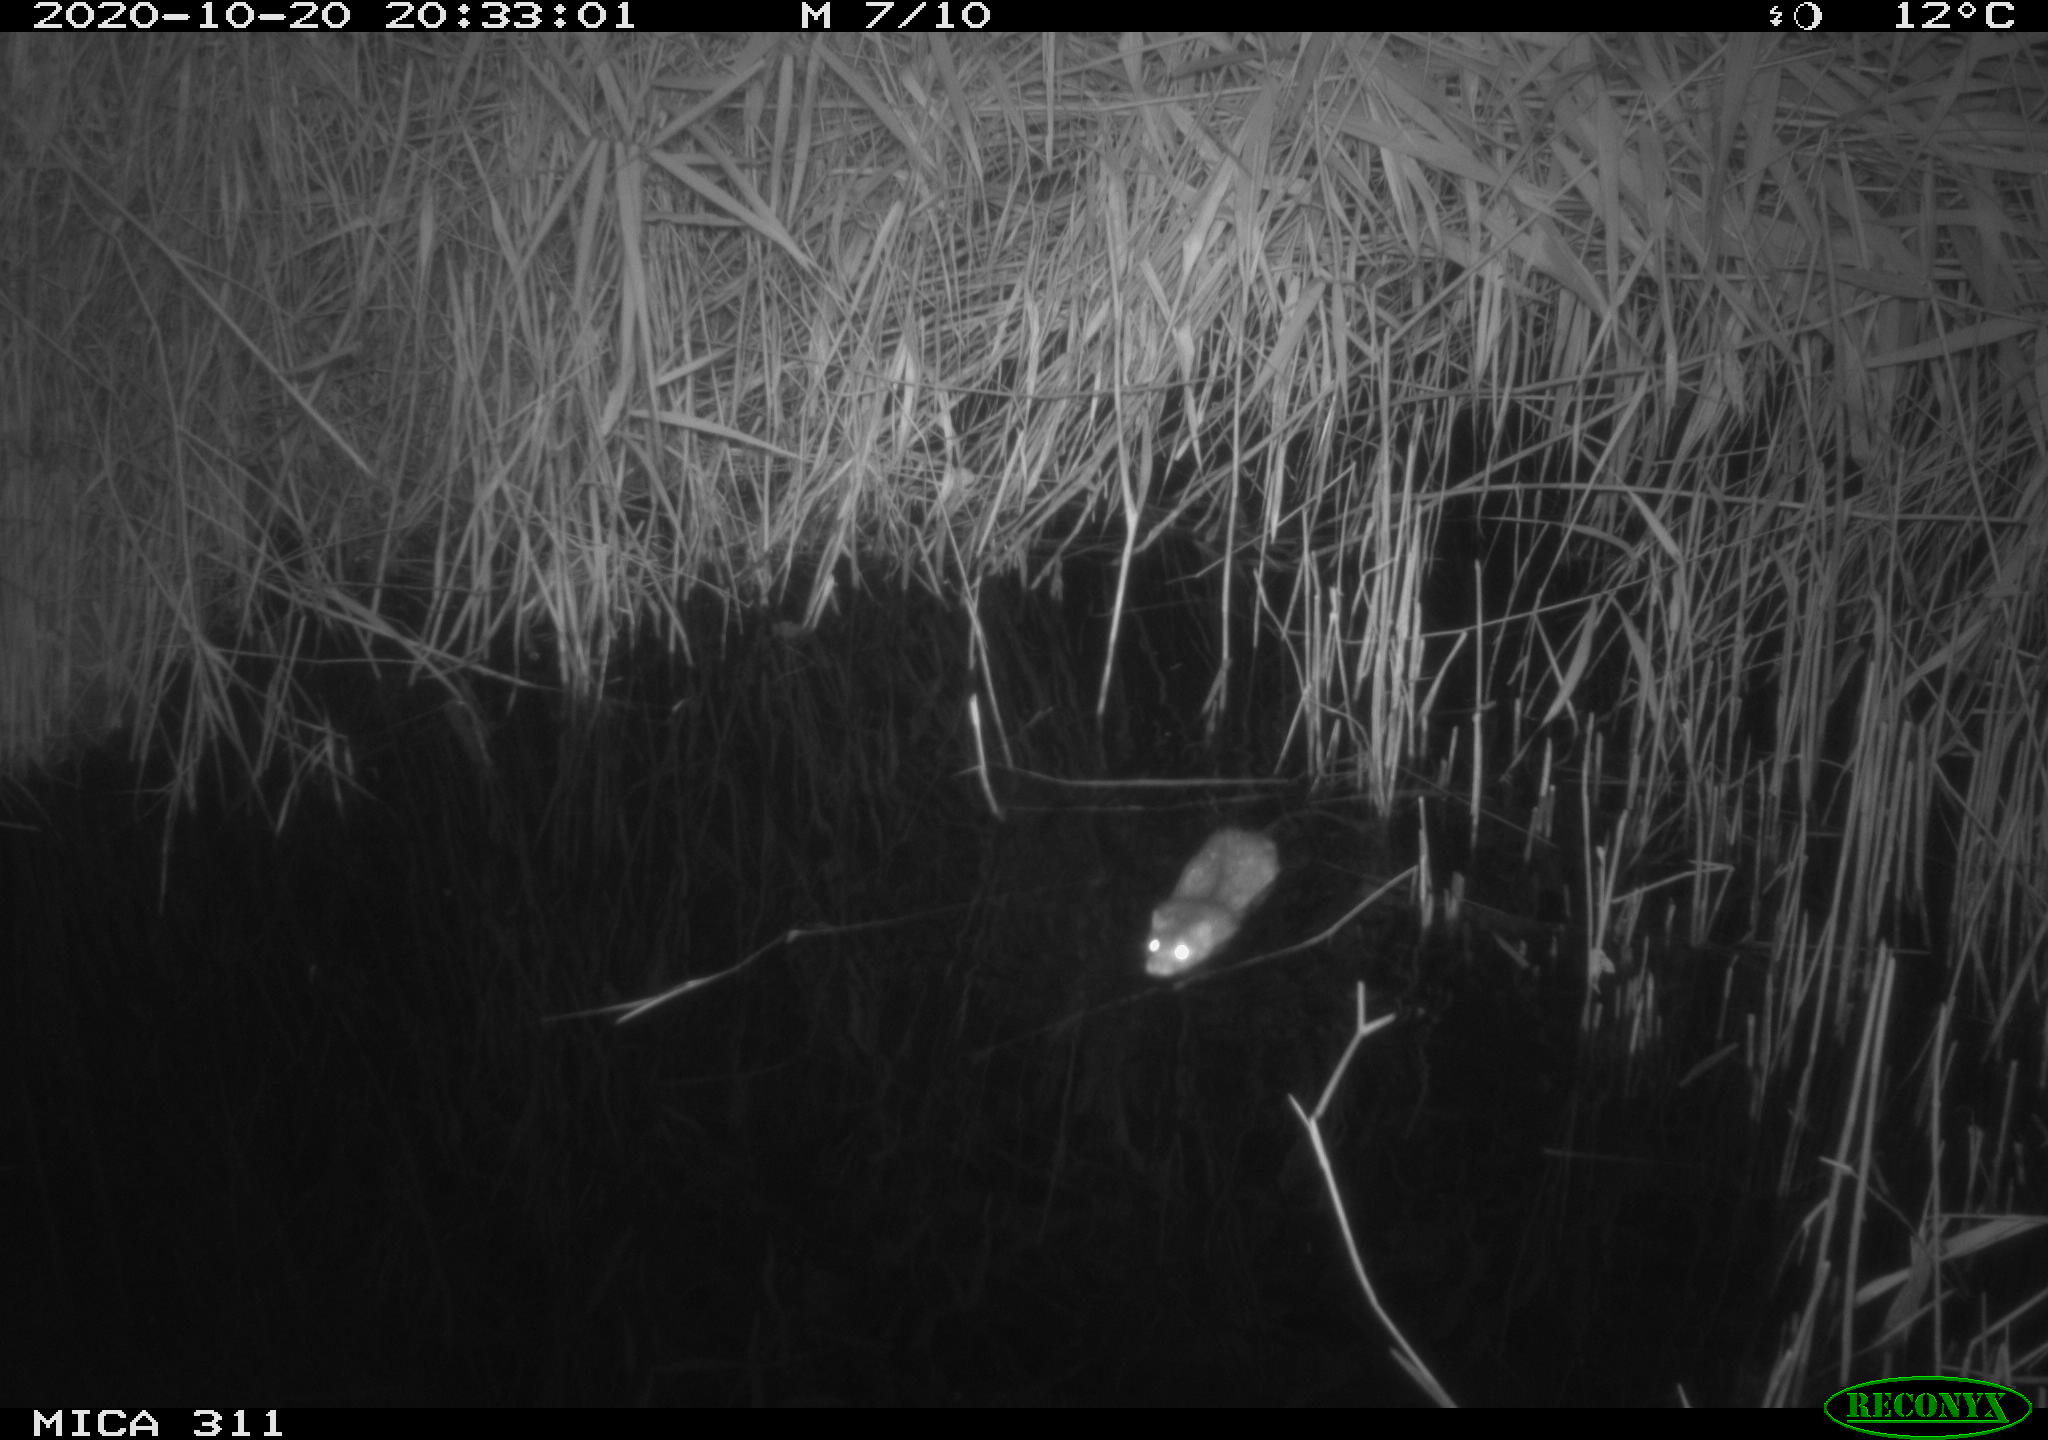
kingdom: Animalia
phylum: Chordata
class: Mammalia
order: Rodentia
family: Muridae
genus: Rattus
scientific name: Rattus norvegicus
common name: Brown rat
